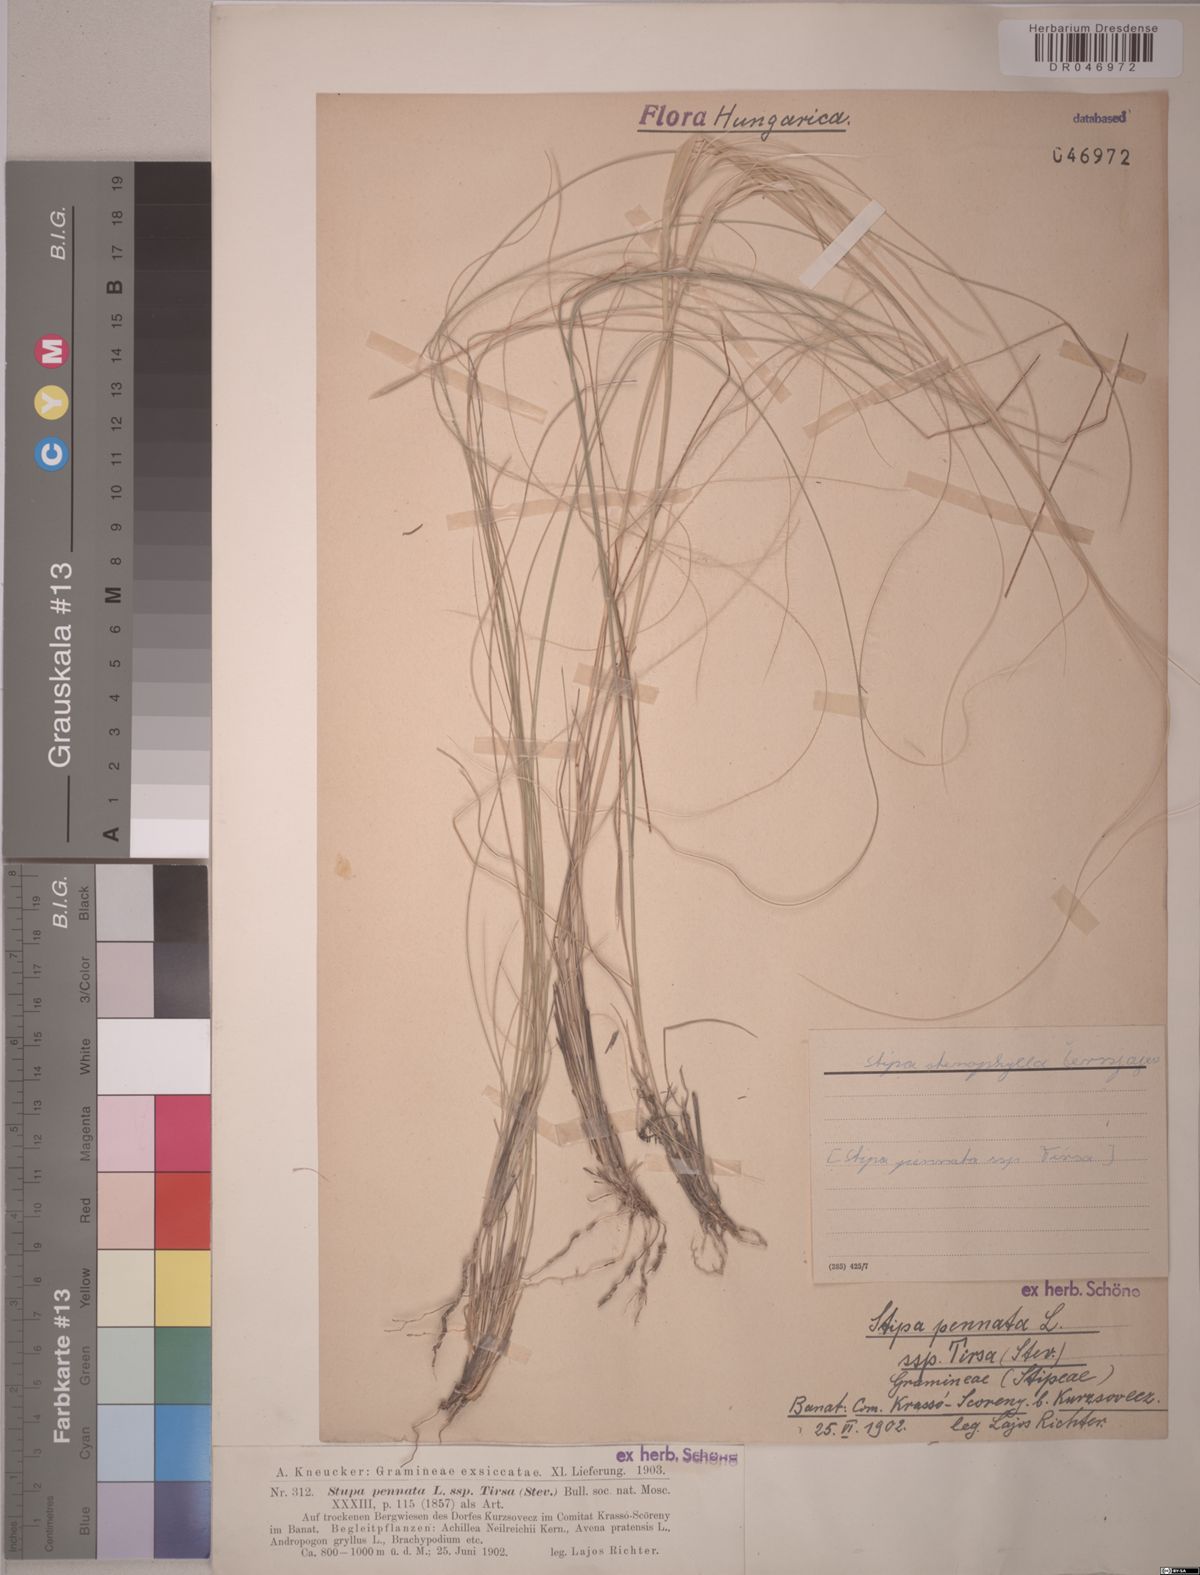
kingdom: Plantae
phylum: Tracheophyta
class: Liliopsida
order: Poales
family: Poaceae
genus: Stipa
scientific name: Stipa tirsa
